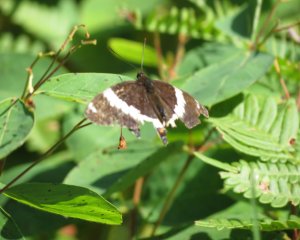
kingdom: Animalia
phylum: Arthropoda
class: Insecta
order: Lepidoptera
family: Nymphalidae
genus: Limenitis
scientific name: Limenitis arthemis
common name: Red-spotted Admiral
